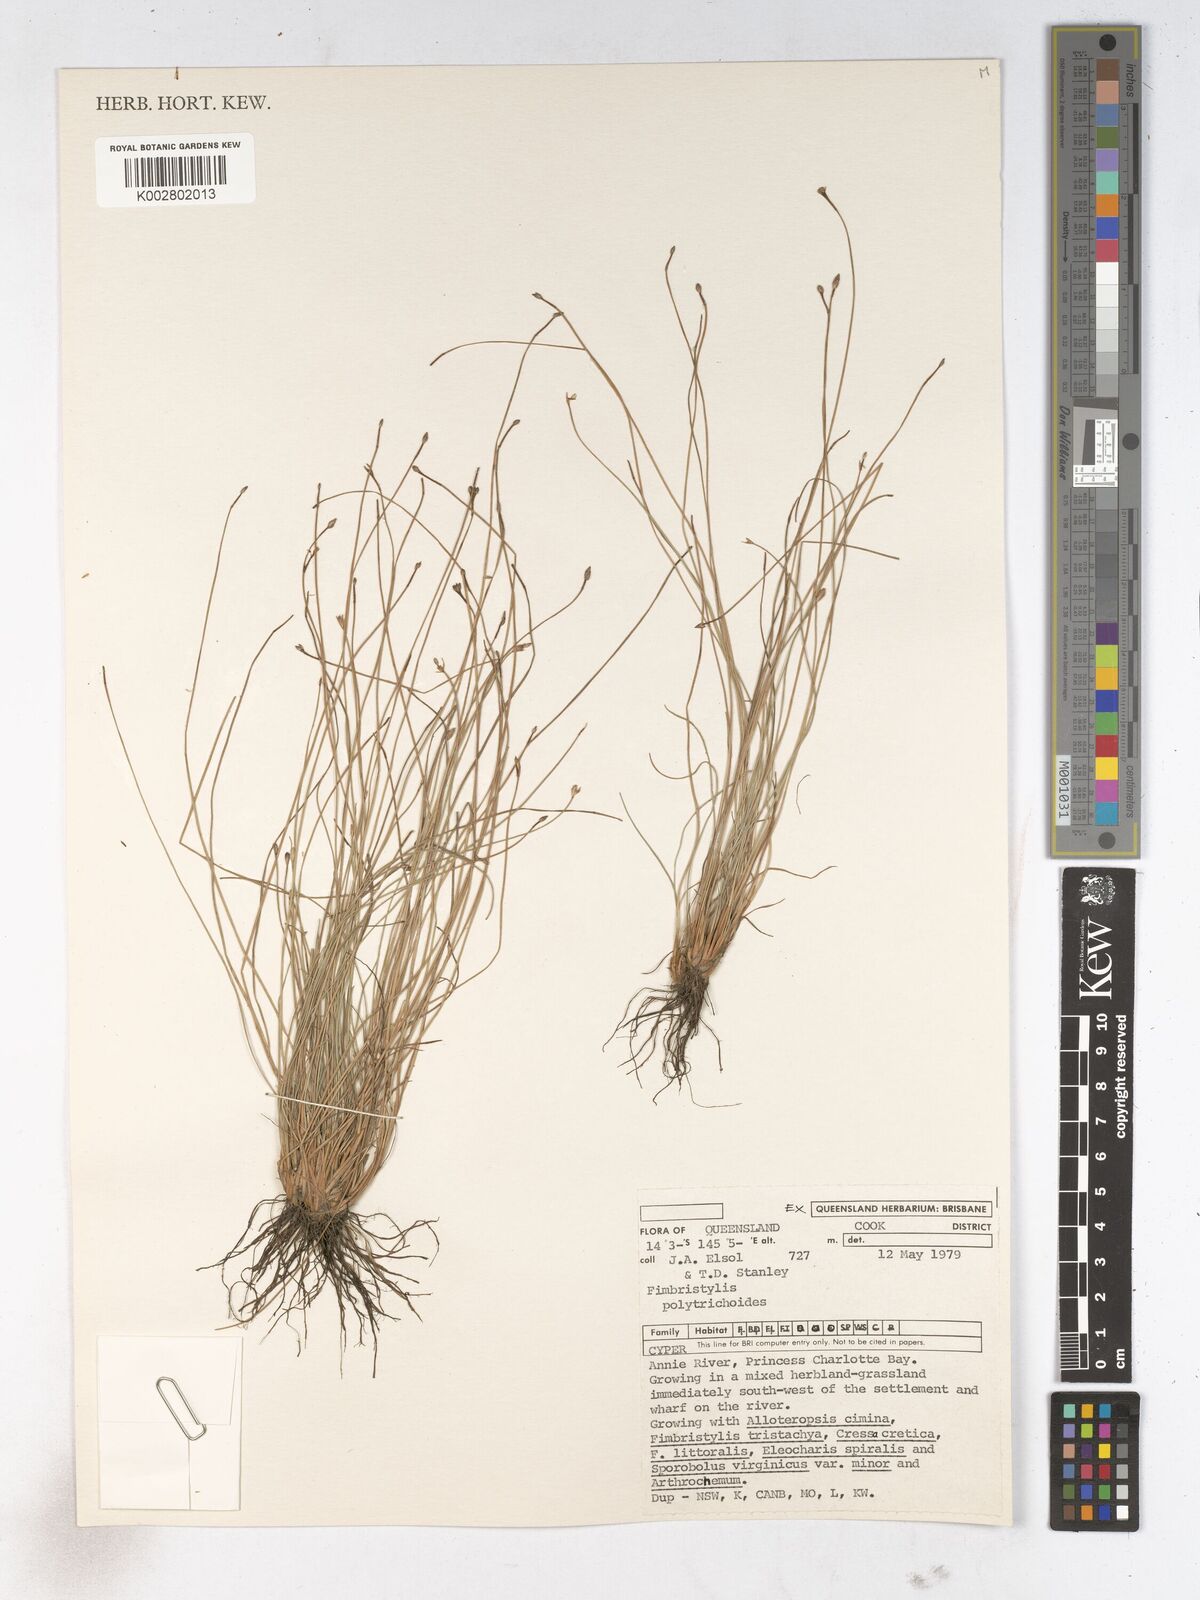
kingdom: Plantae
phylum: Tracheophyta
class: Liliopsida
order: Poales
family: Cyperaceae
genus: Fimbristylis
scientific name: Fimbristylis polytrichoides
